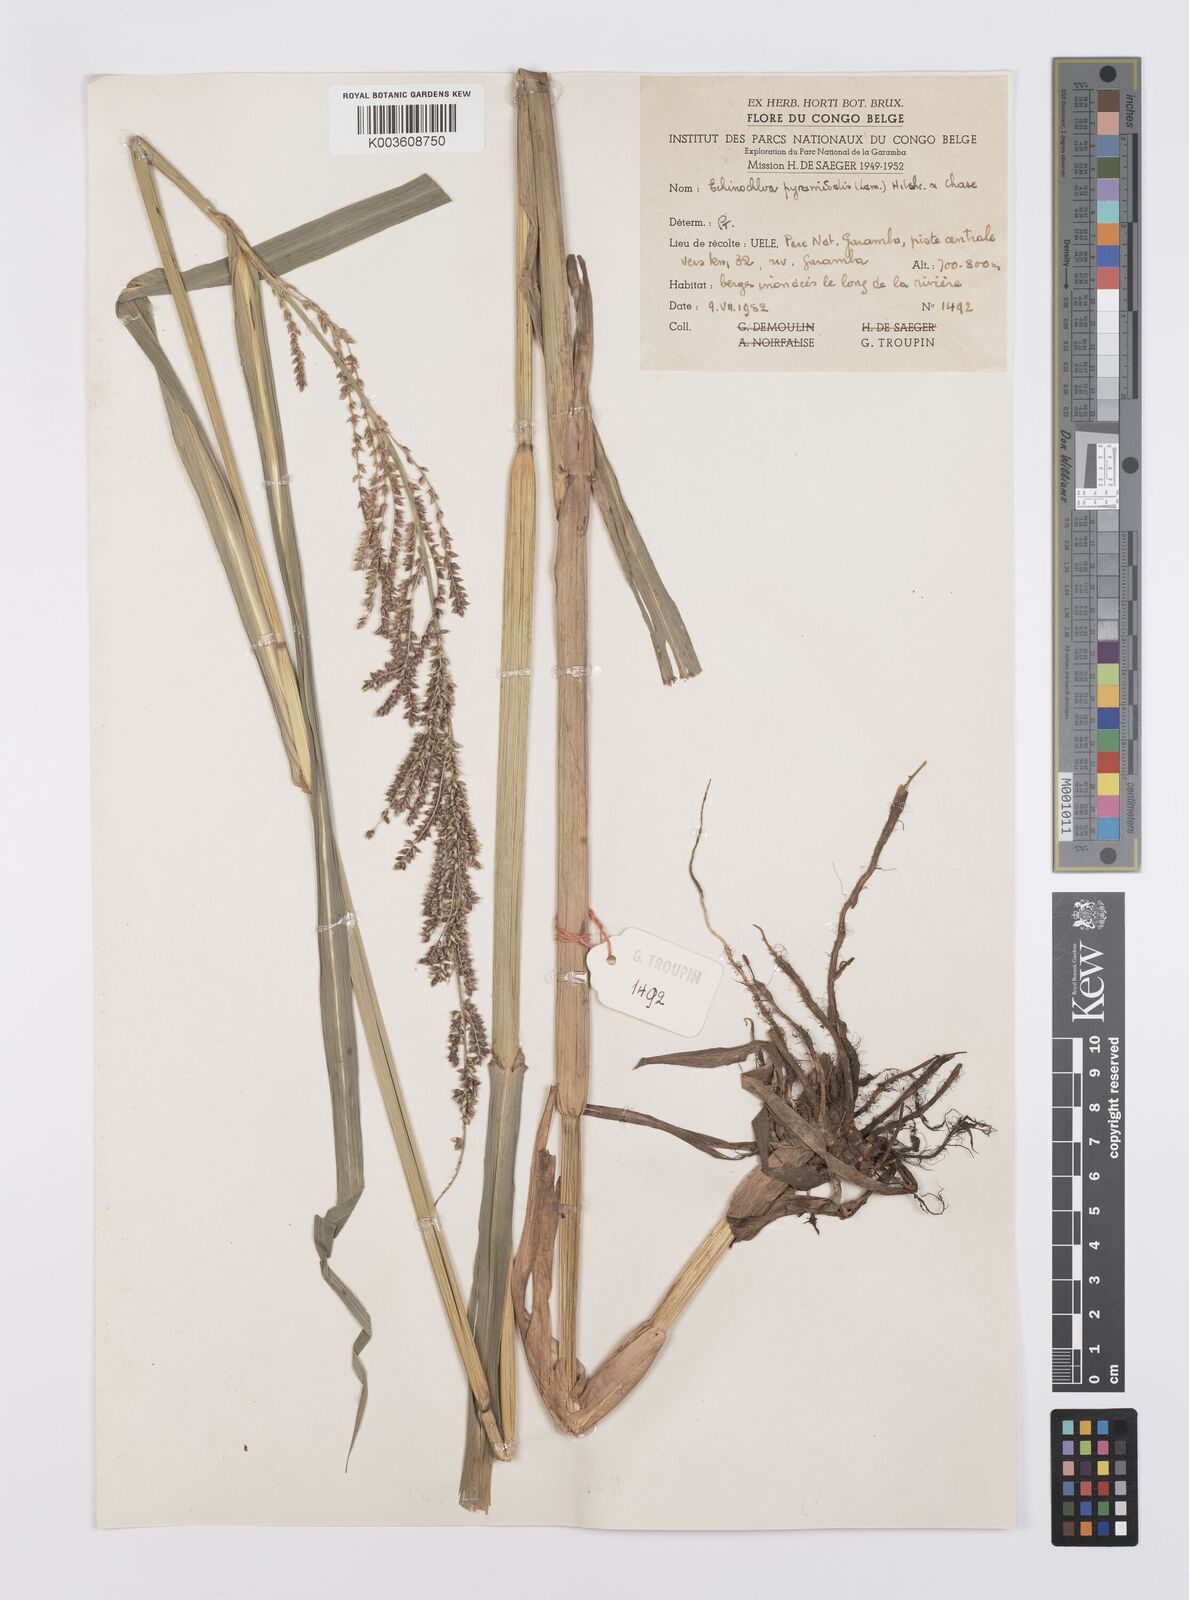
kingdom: Plantae
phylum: Tracheophyta
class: Liliopsida
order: Poales
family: Poaceae
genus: Echinochloa
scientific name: Echinochloa pyramidalis
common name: Antelope grass
